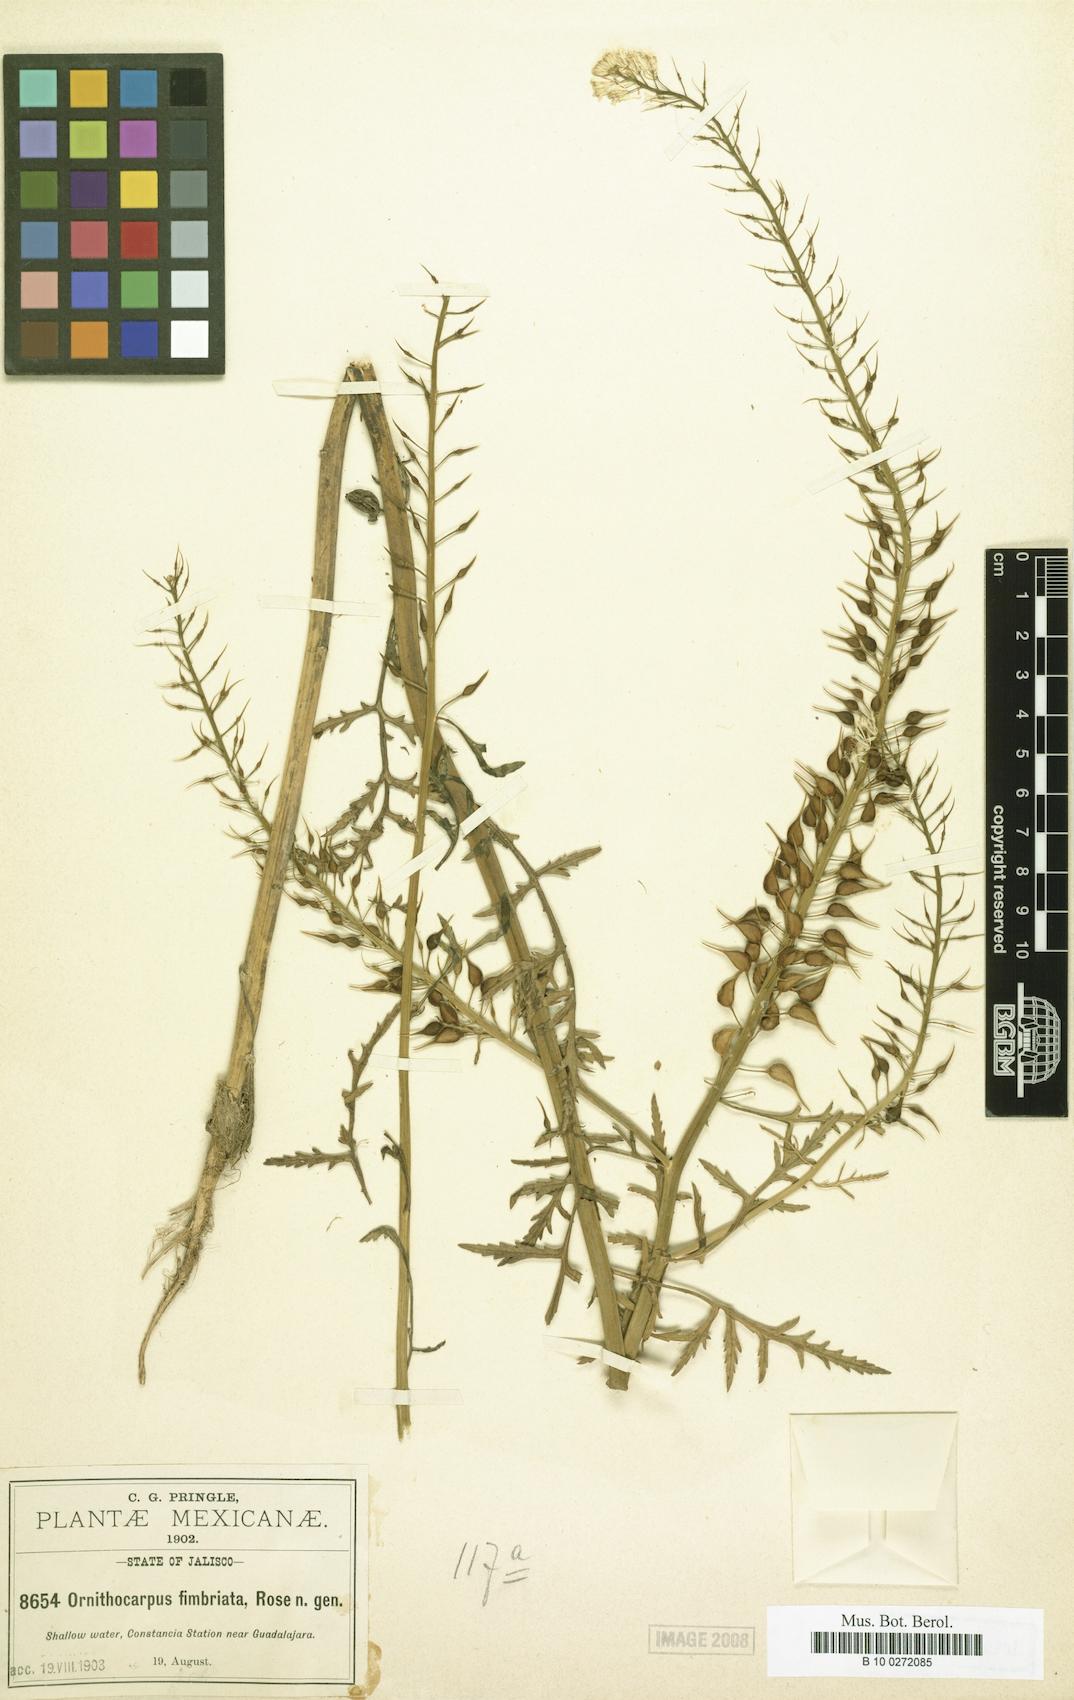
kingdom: Plantae
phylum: Tracheophyta
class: Magnoliopsida
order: Brassicales
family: Brassicaceae
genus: Ornithocarpa
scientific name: Ornithocarpa fimbriata
